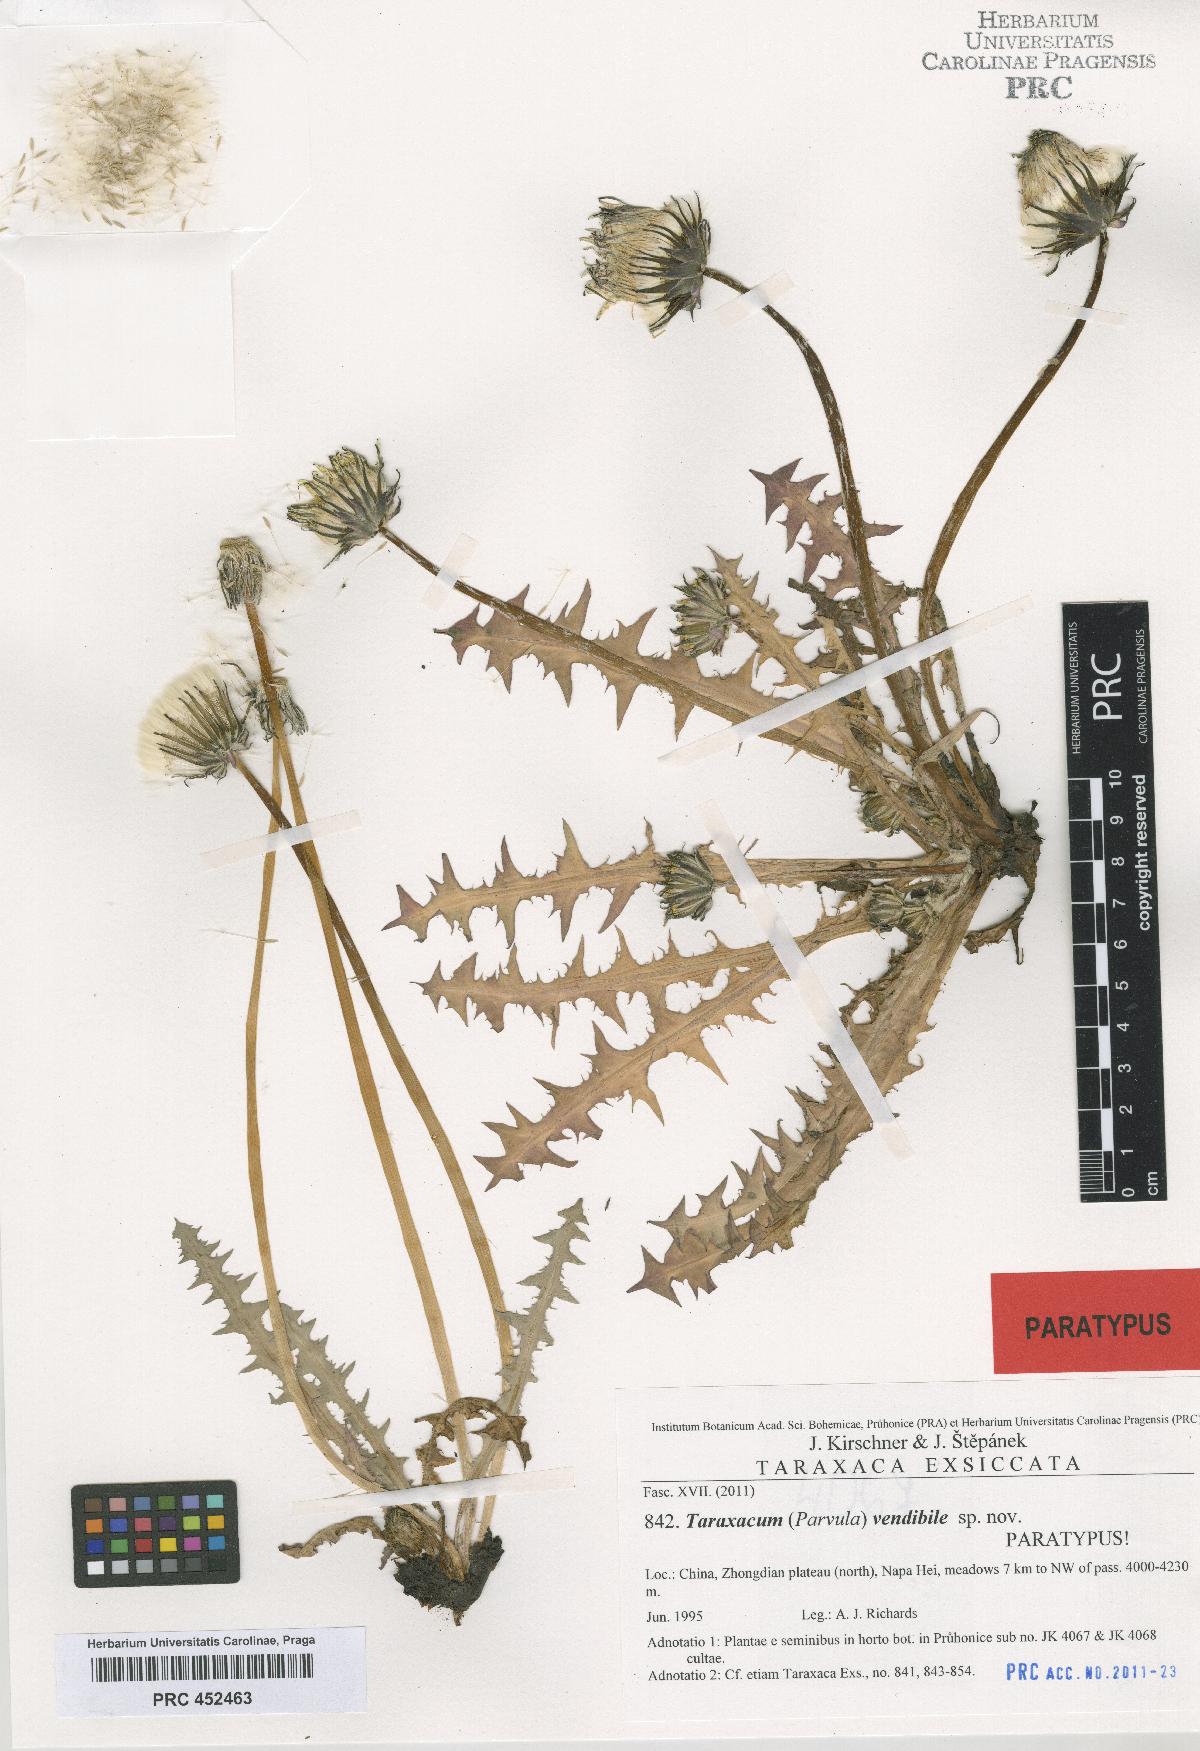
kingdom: Plantae
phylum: Tracheophyta
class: Magnoliopsida
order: Asterales
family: Asteraceae
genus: Taraxacum
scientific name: Taraxacum vendibile
